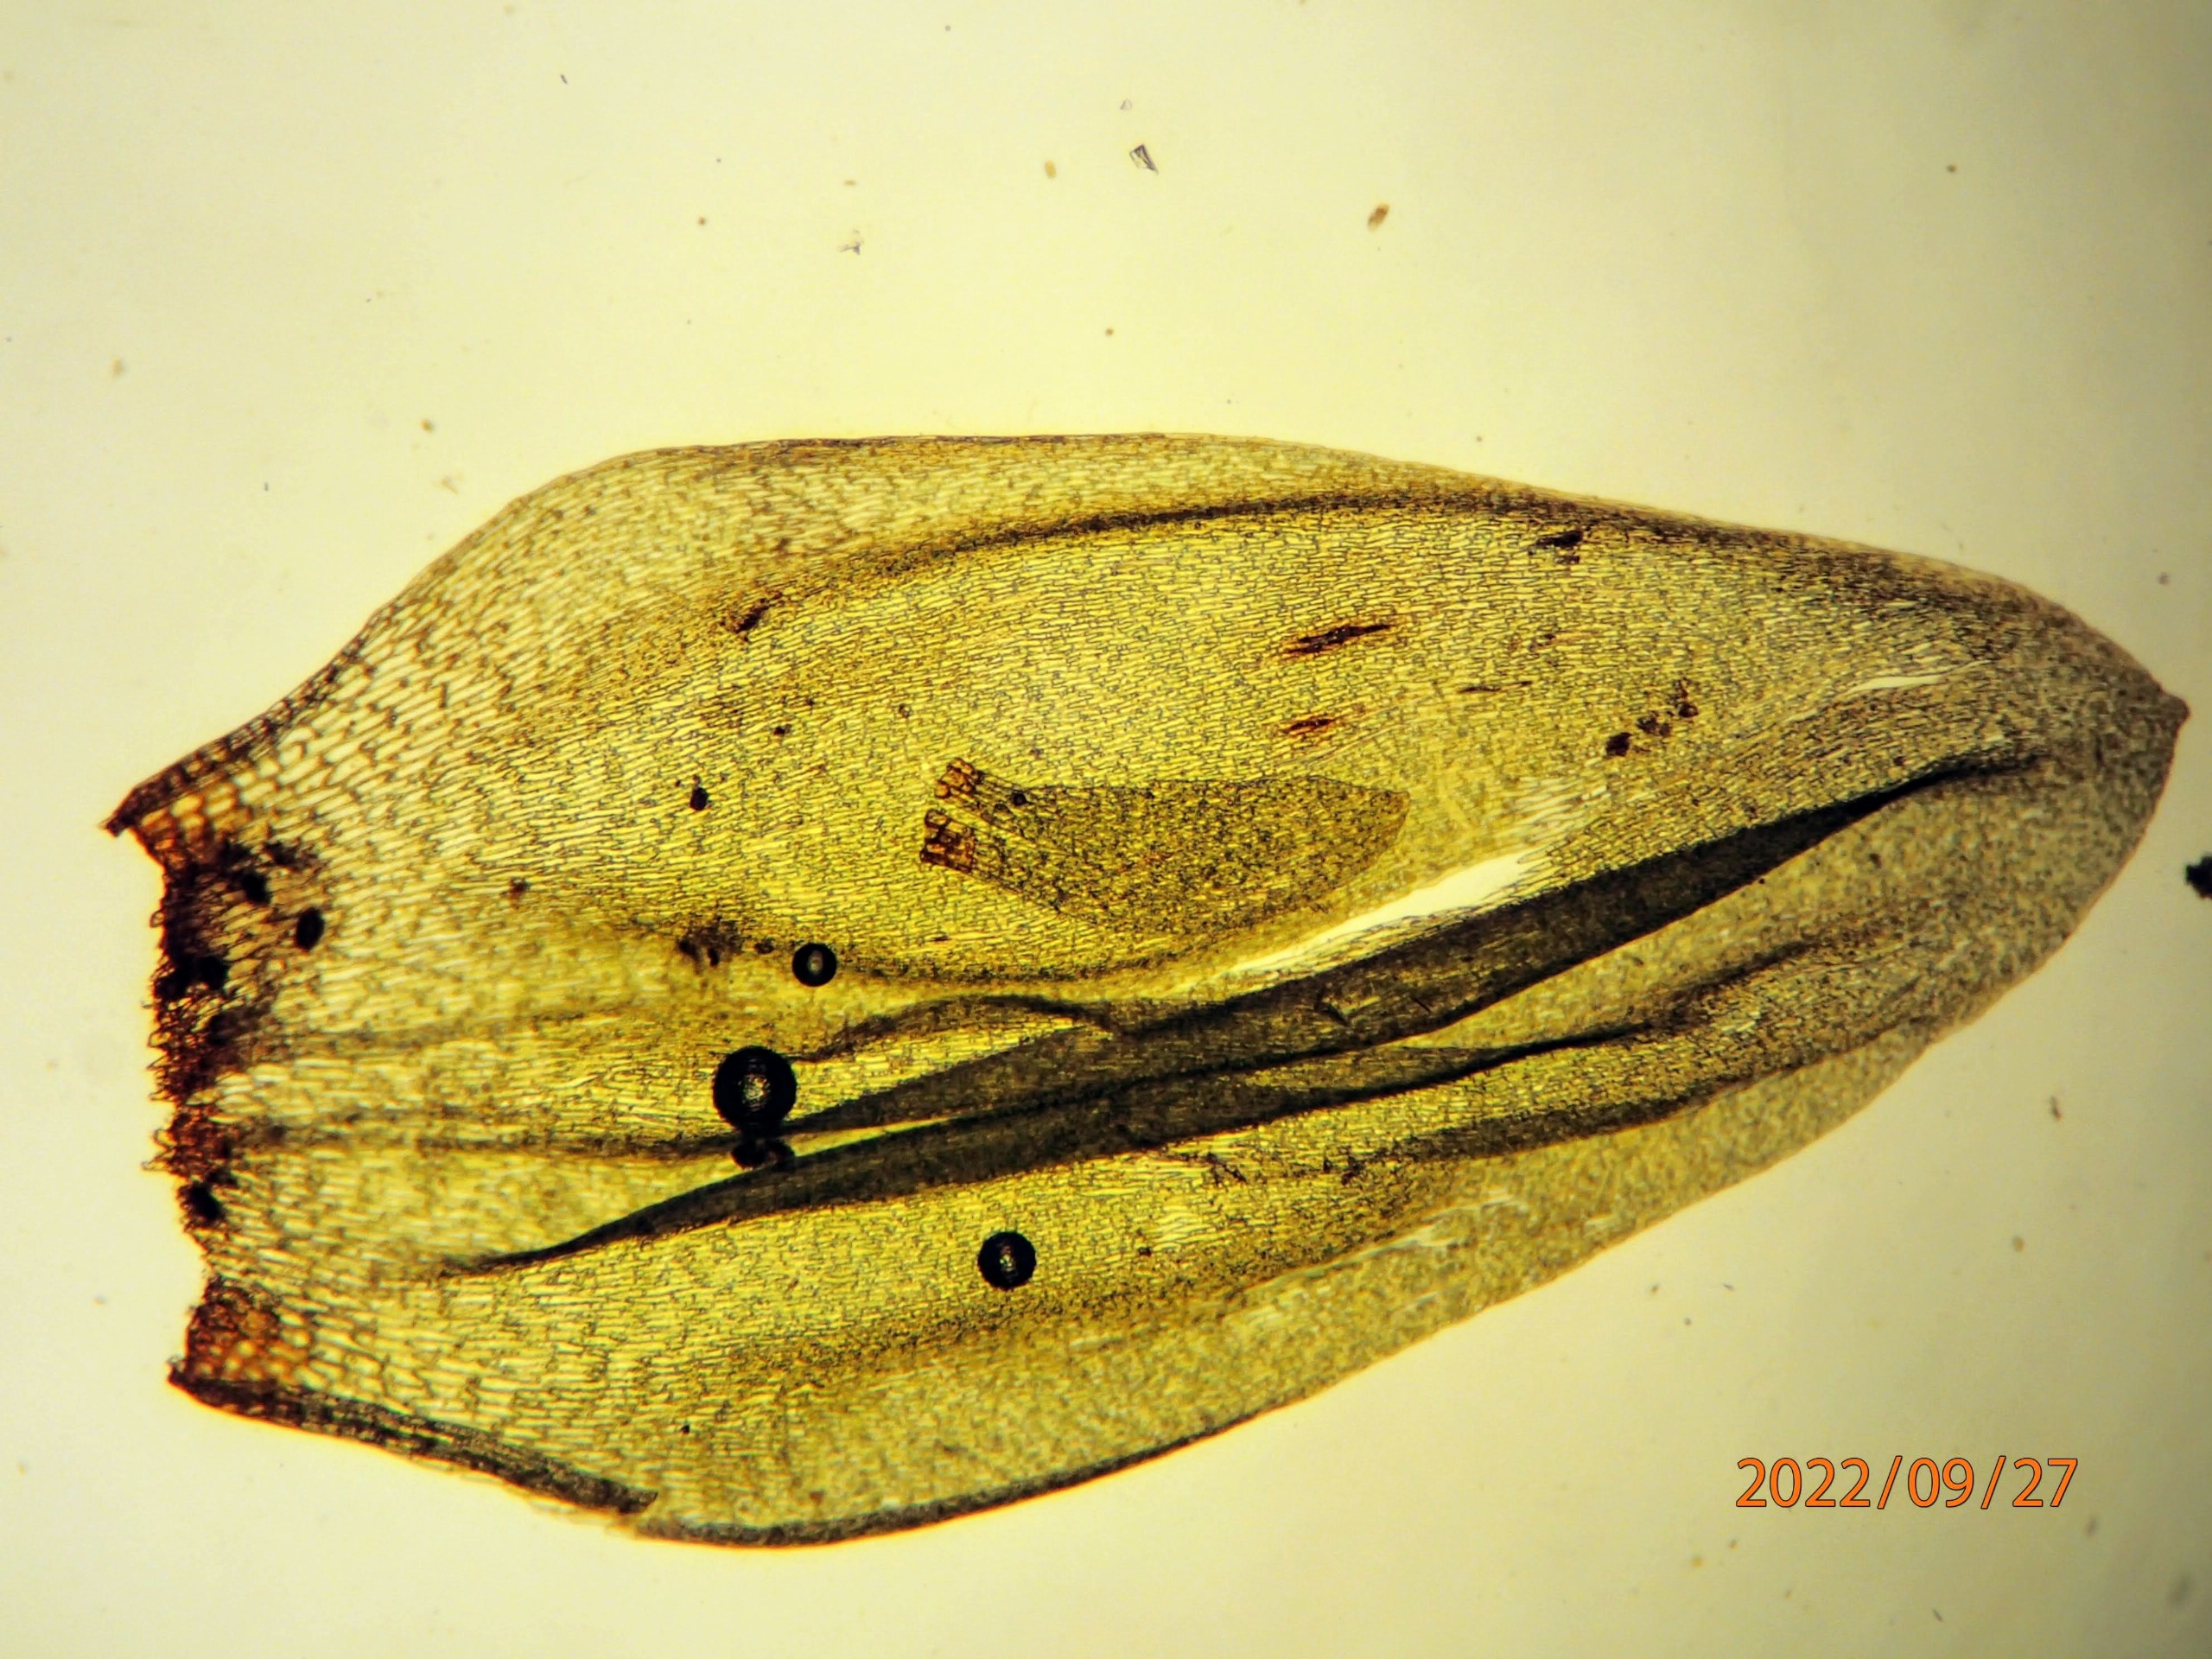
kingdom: Plantae
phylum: Bryophyta
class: Bryopsida
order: Hypnales
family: Hylocomiaceae
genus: Pleurozium
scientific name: Pleurozium schreberi
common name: Trind fyrremos
